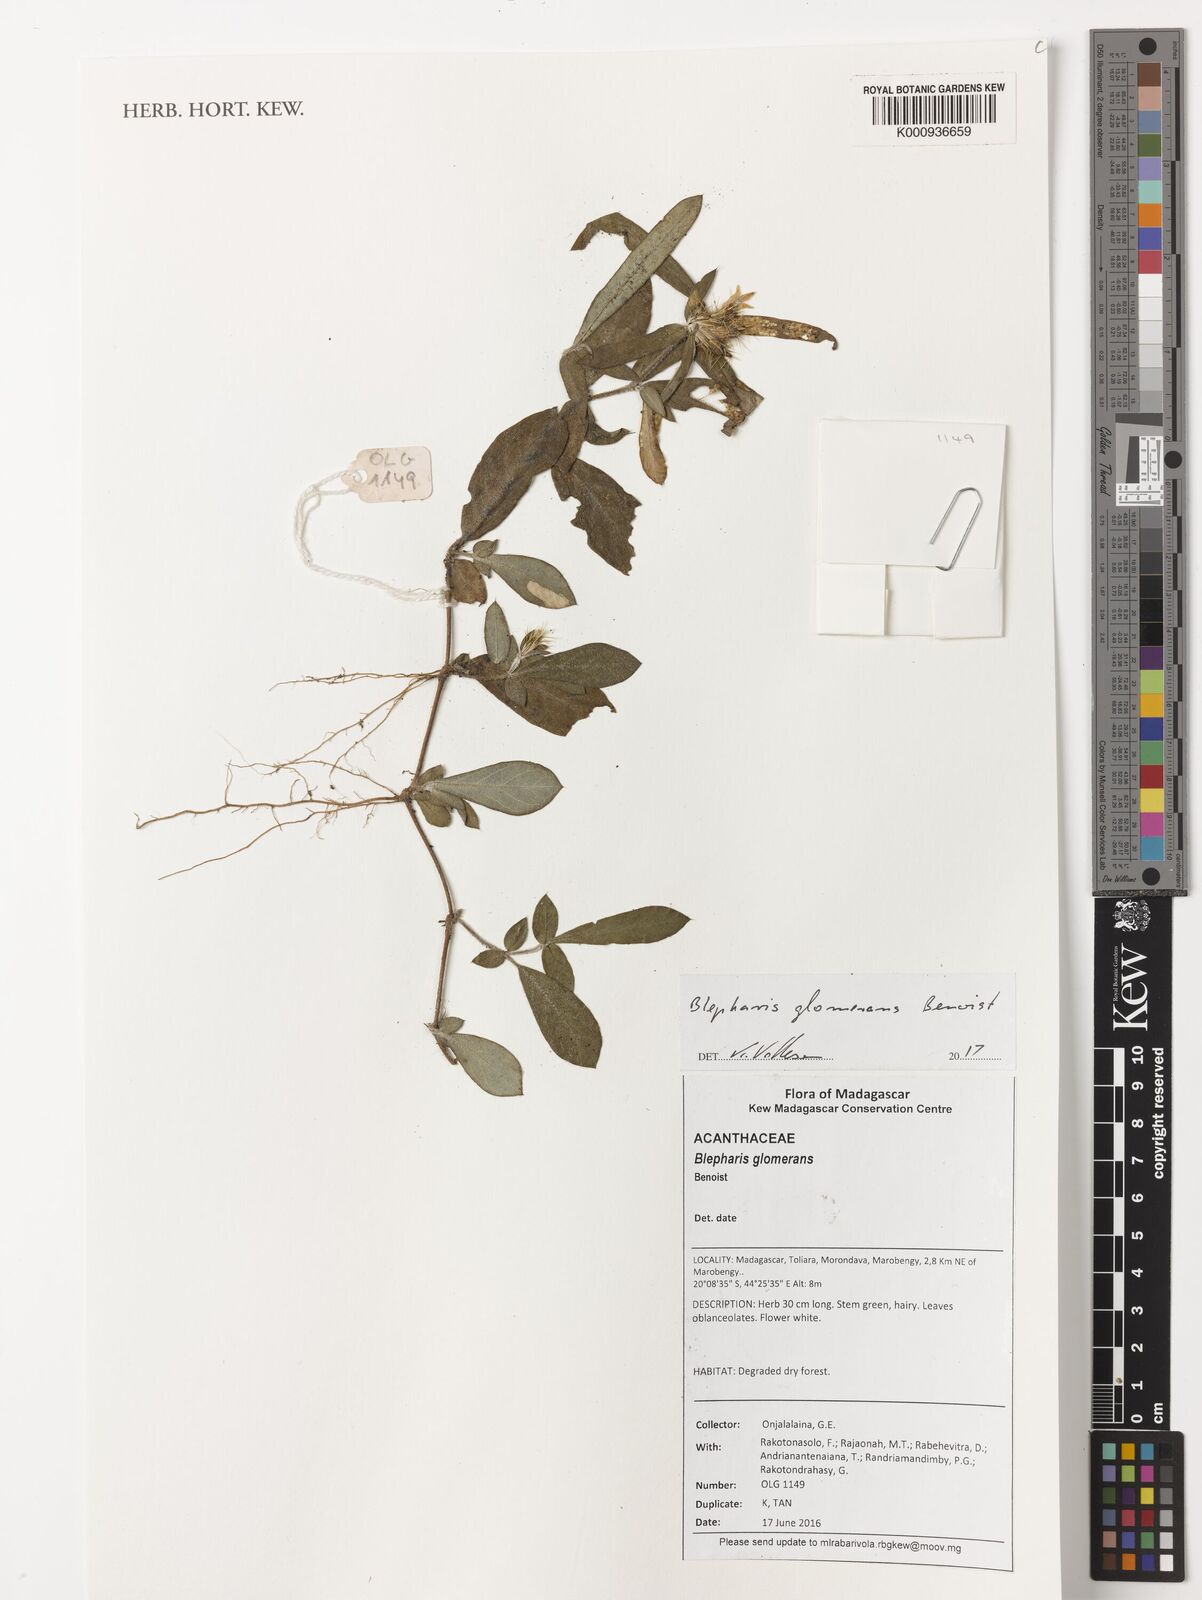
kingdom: Plantae
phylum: Tracheophyta
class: Magnoliopsida
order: Lamiales
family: Acanthaceae
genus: Blepharis
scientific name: Blepharis glomerans
